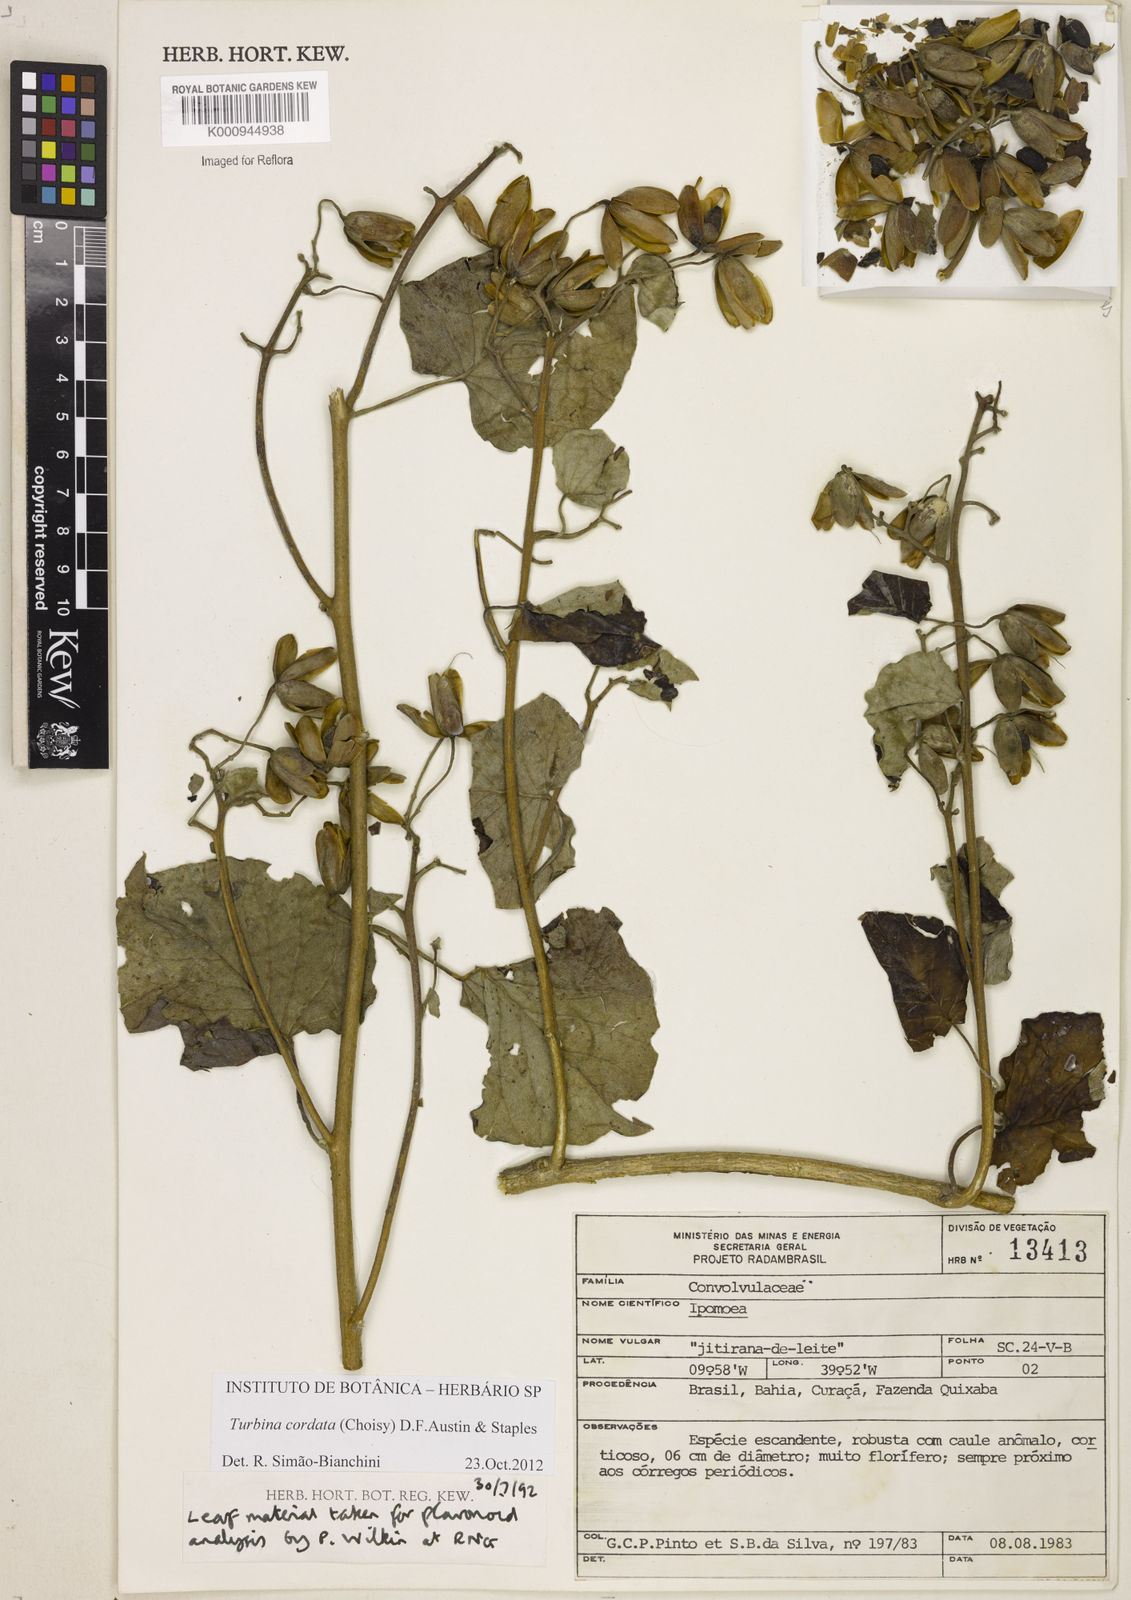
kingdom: Plantae
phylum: Tracheophyta
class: Magnoliopsida
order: Solanales
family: Convolvulaceae
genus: Ipomoea
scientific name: Ipomoea sericosepala
